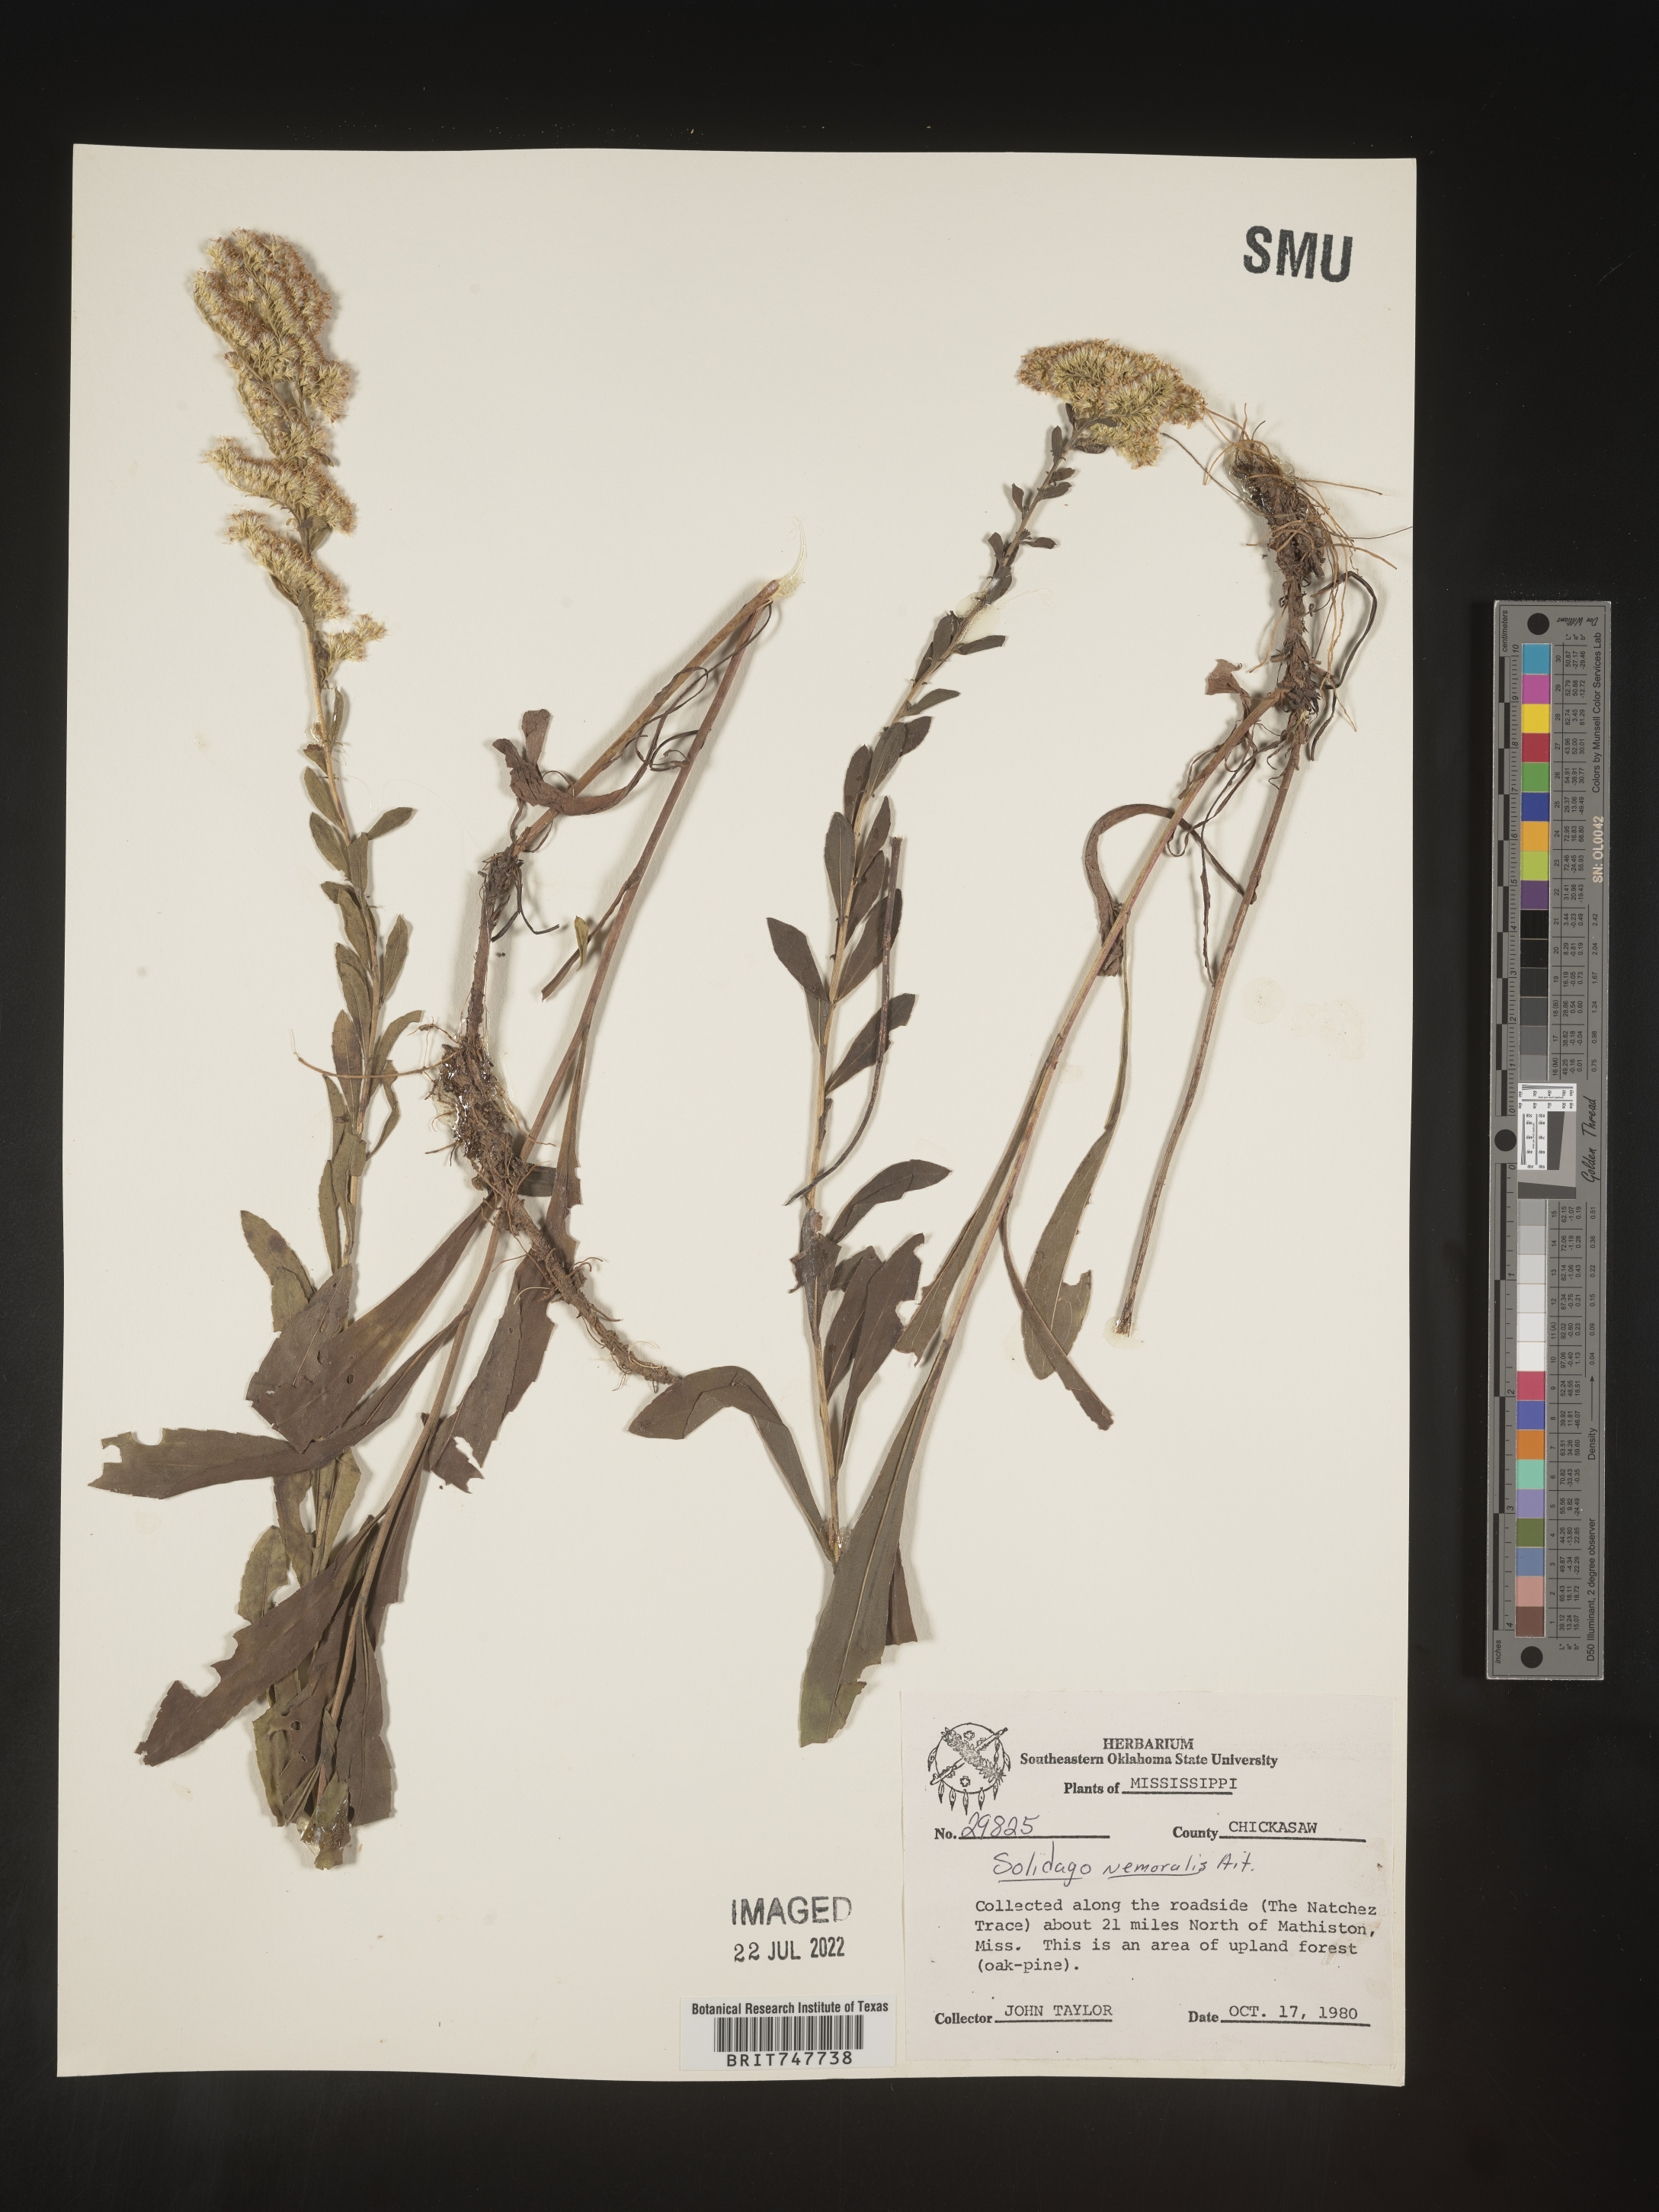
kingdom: Plantae
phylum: Tracheophyta
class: Magnoliopsida
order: Asterales
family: Asteraceae
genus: Solidago
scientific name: Solidago nemoralis
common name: Grey goldenrod
